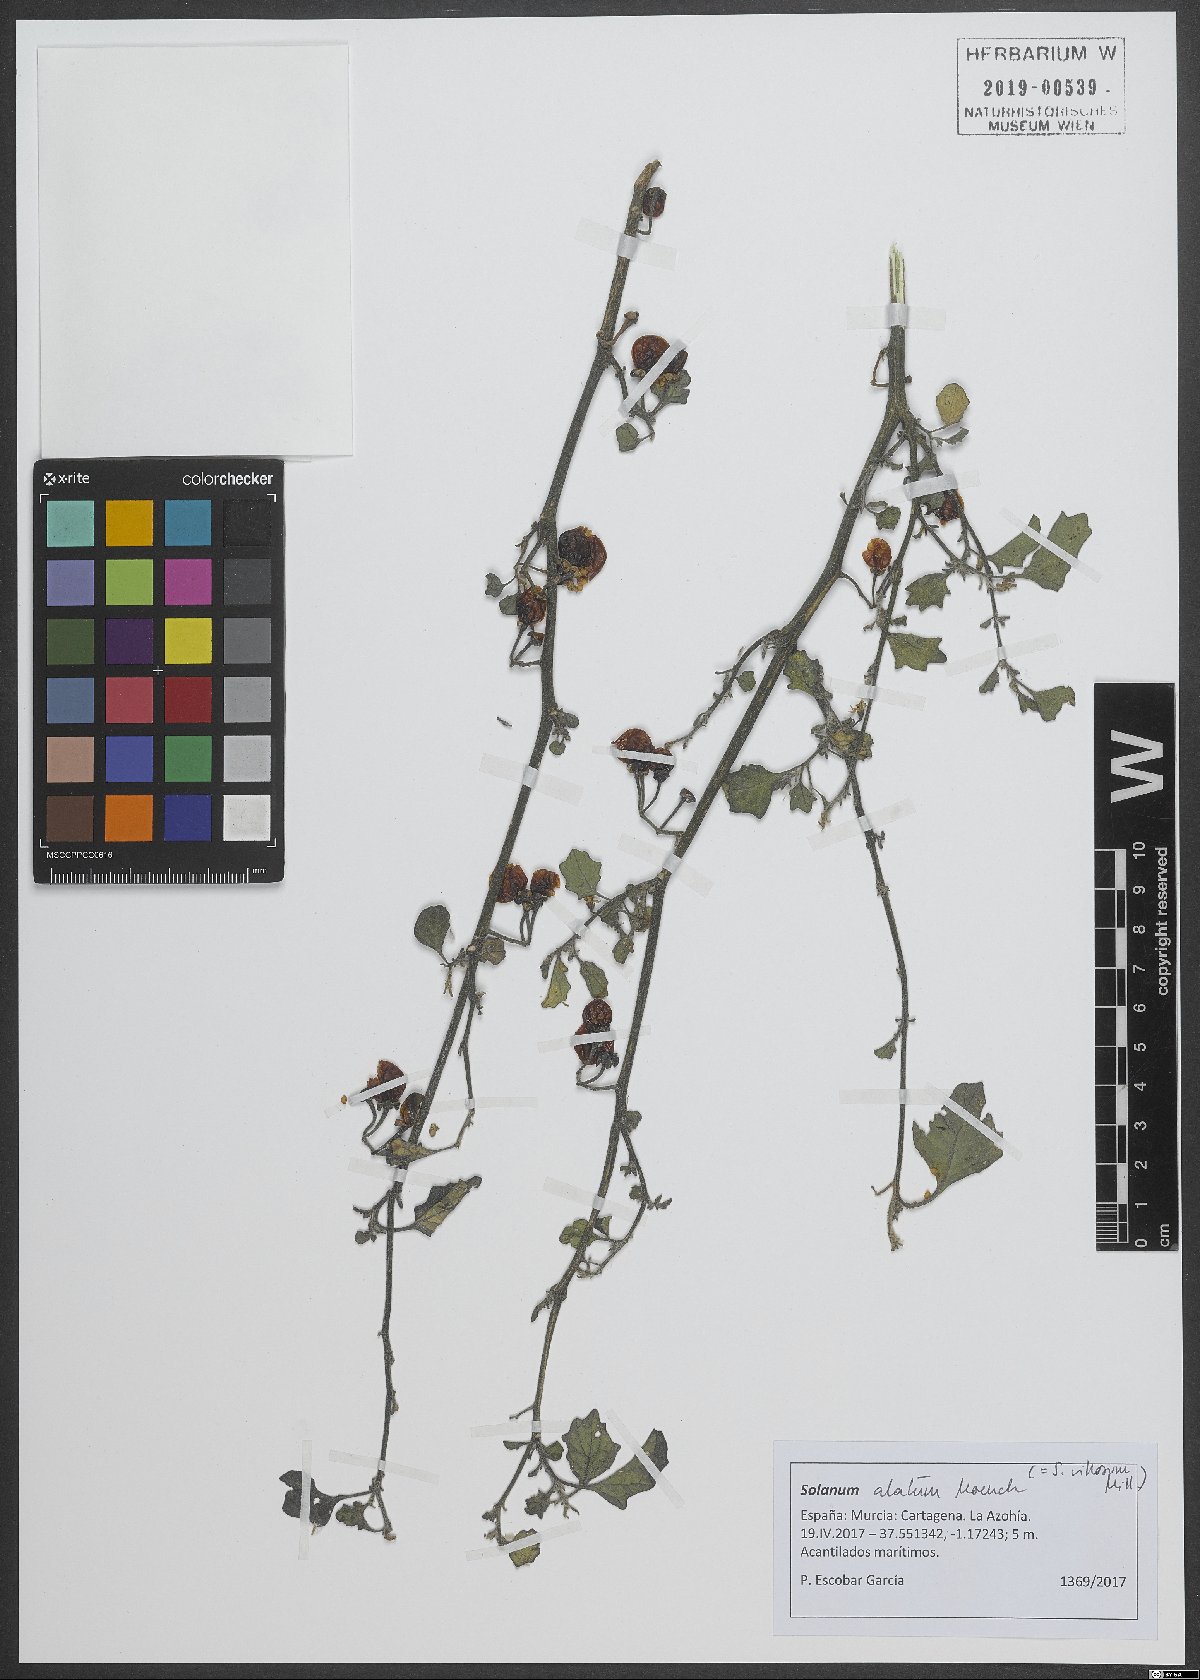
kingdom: Plantae
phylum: Tracheophyta
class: Magnoliopsida
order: Solanales
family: Solanaceae
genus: Solanum
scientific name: Solanum alatum
